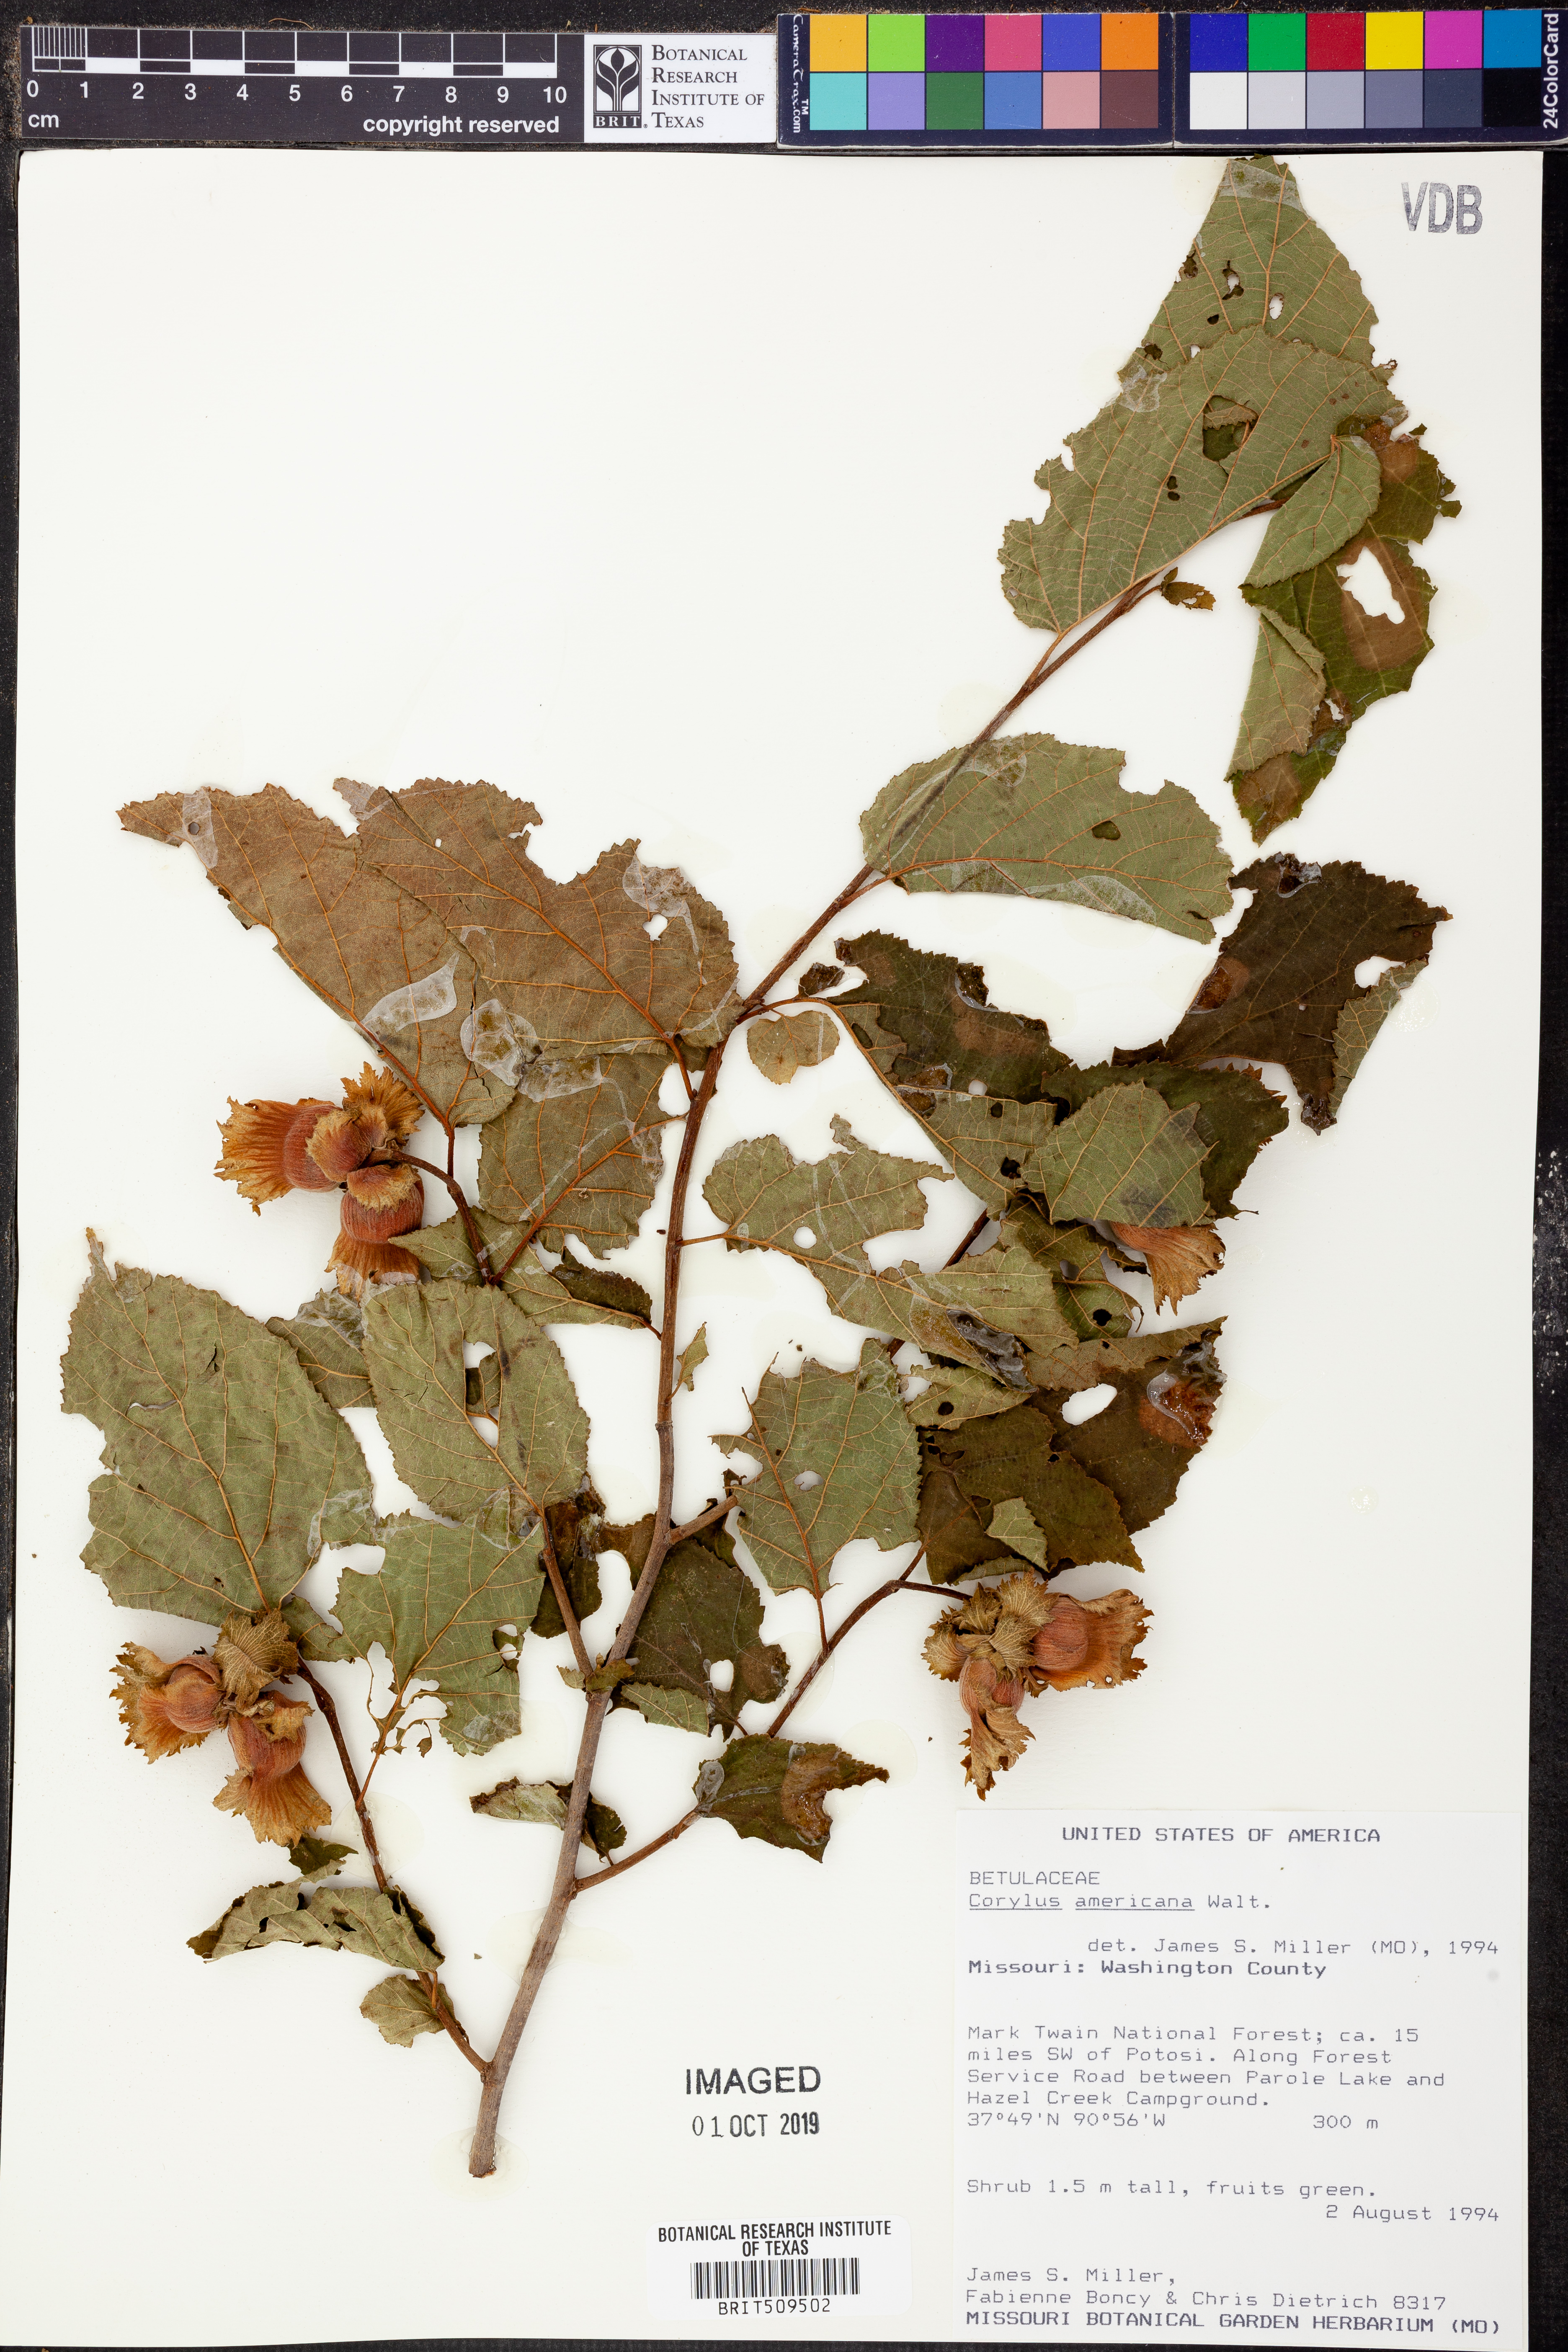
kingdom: Plantae
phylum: Tracheophyta
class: Magnoliopsida
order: Fagales
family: Betulaceae
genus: Corylus
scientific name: Corylus americana
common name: American hazel
